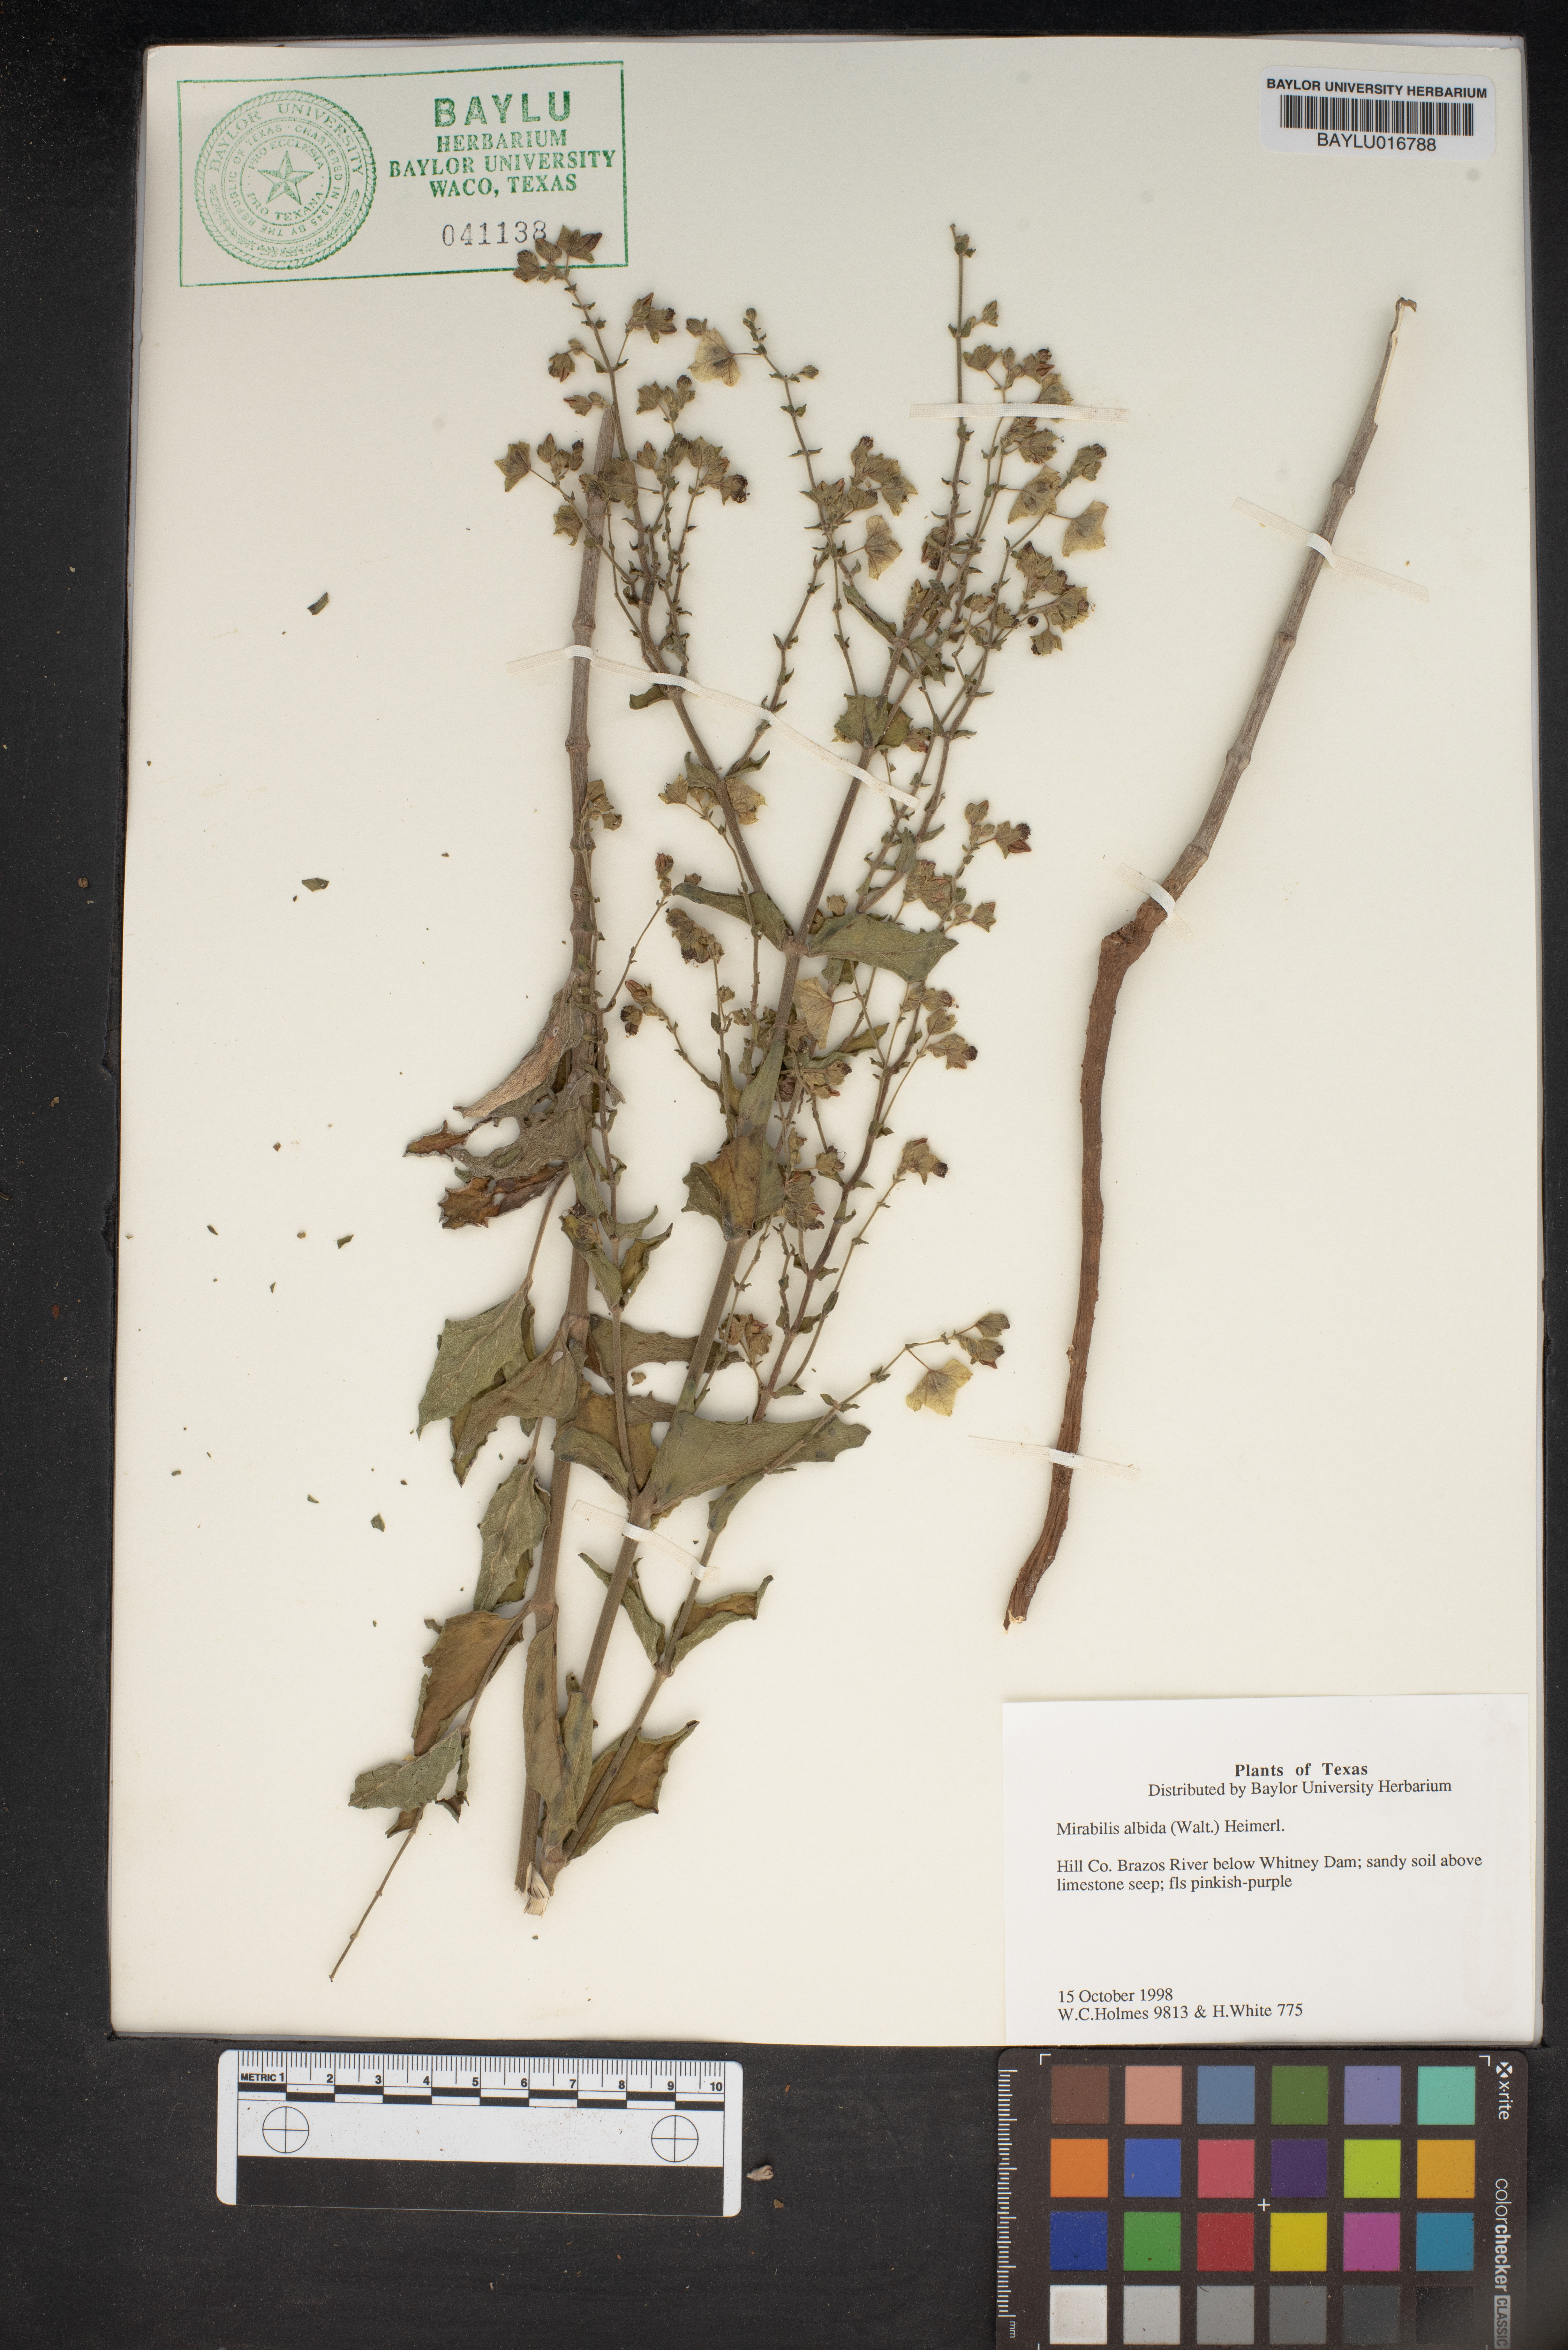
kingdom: Plantae
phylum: Tracheophyta
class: Magnoliopsida
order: Caryophyllales
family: Nyctaginaceae
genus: Mirabilis
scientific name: Mirabilis albida
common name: Hairy four-o'clock
